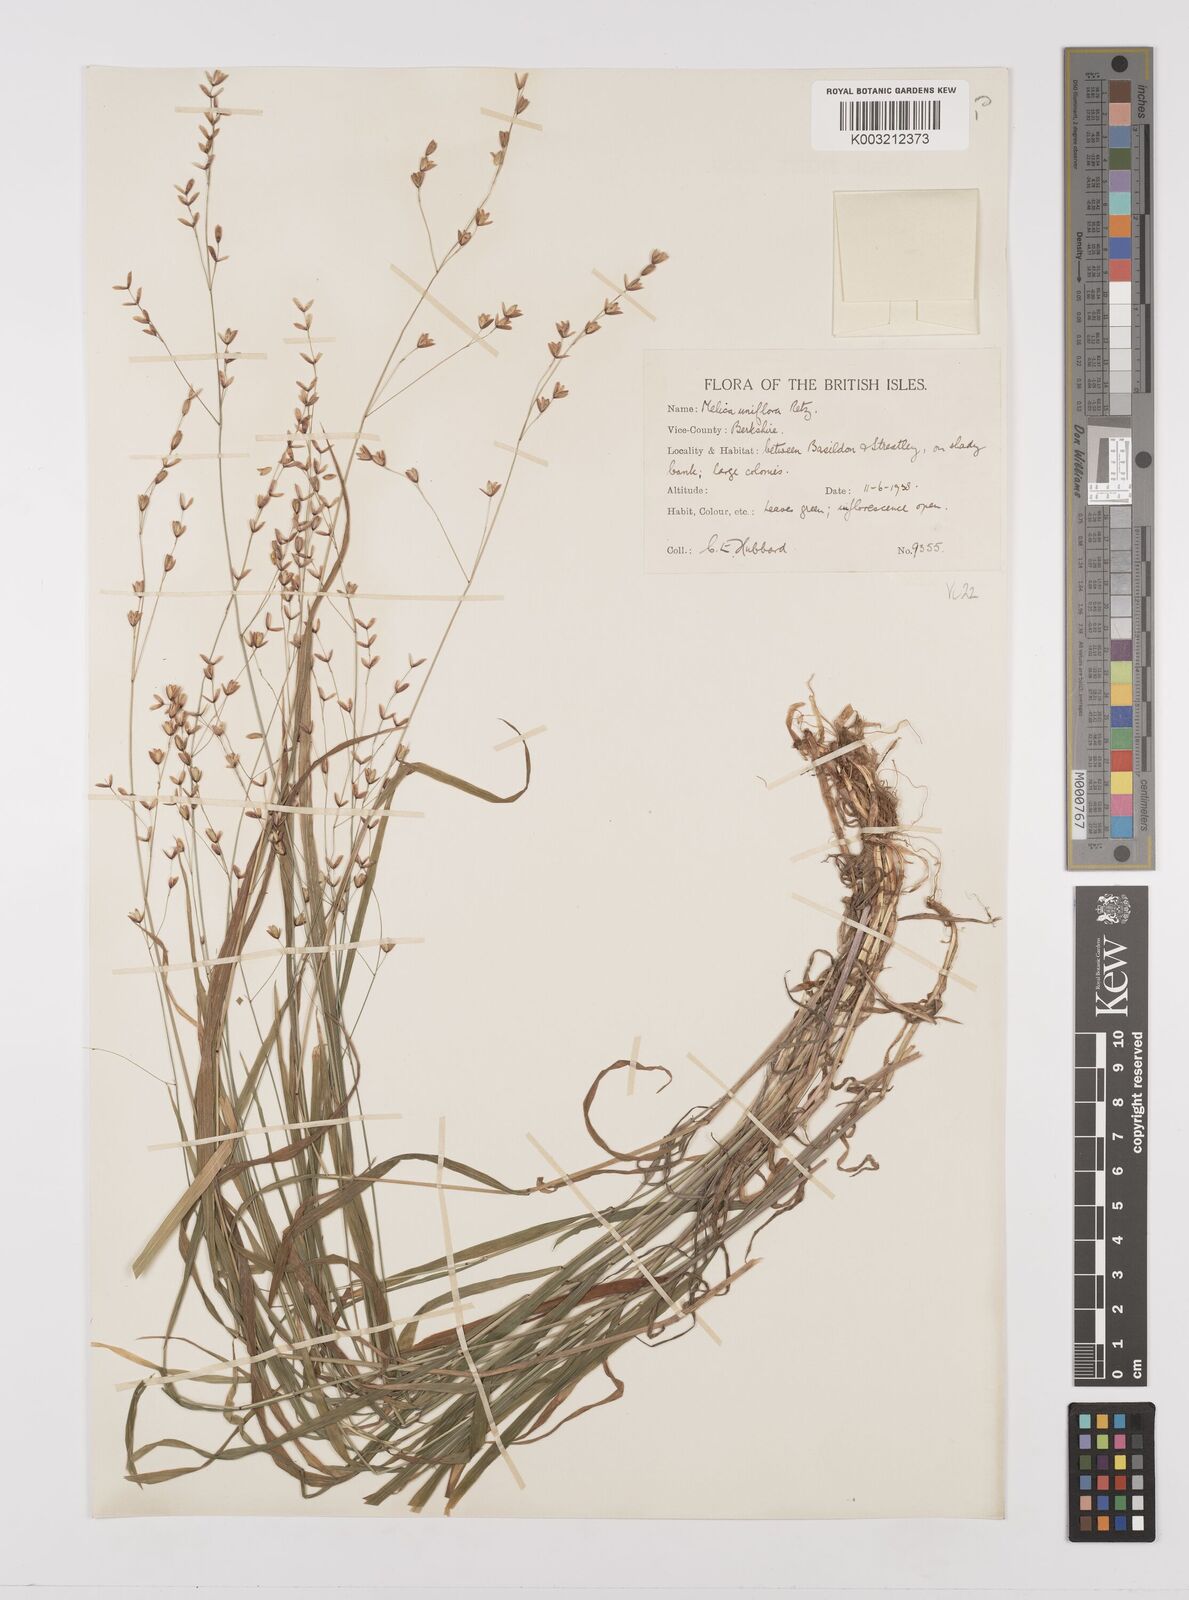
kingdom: Plantae
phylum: Tracheophyta
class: Liliopsida
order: Poales
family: Poaceae
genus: Melica
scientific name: Melica uniflora
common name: Wood melick
